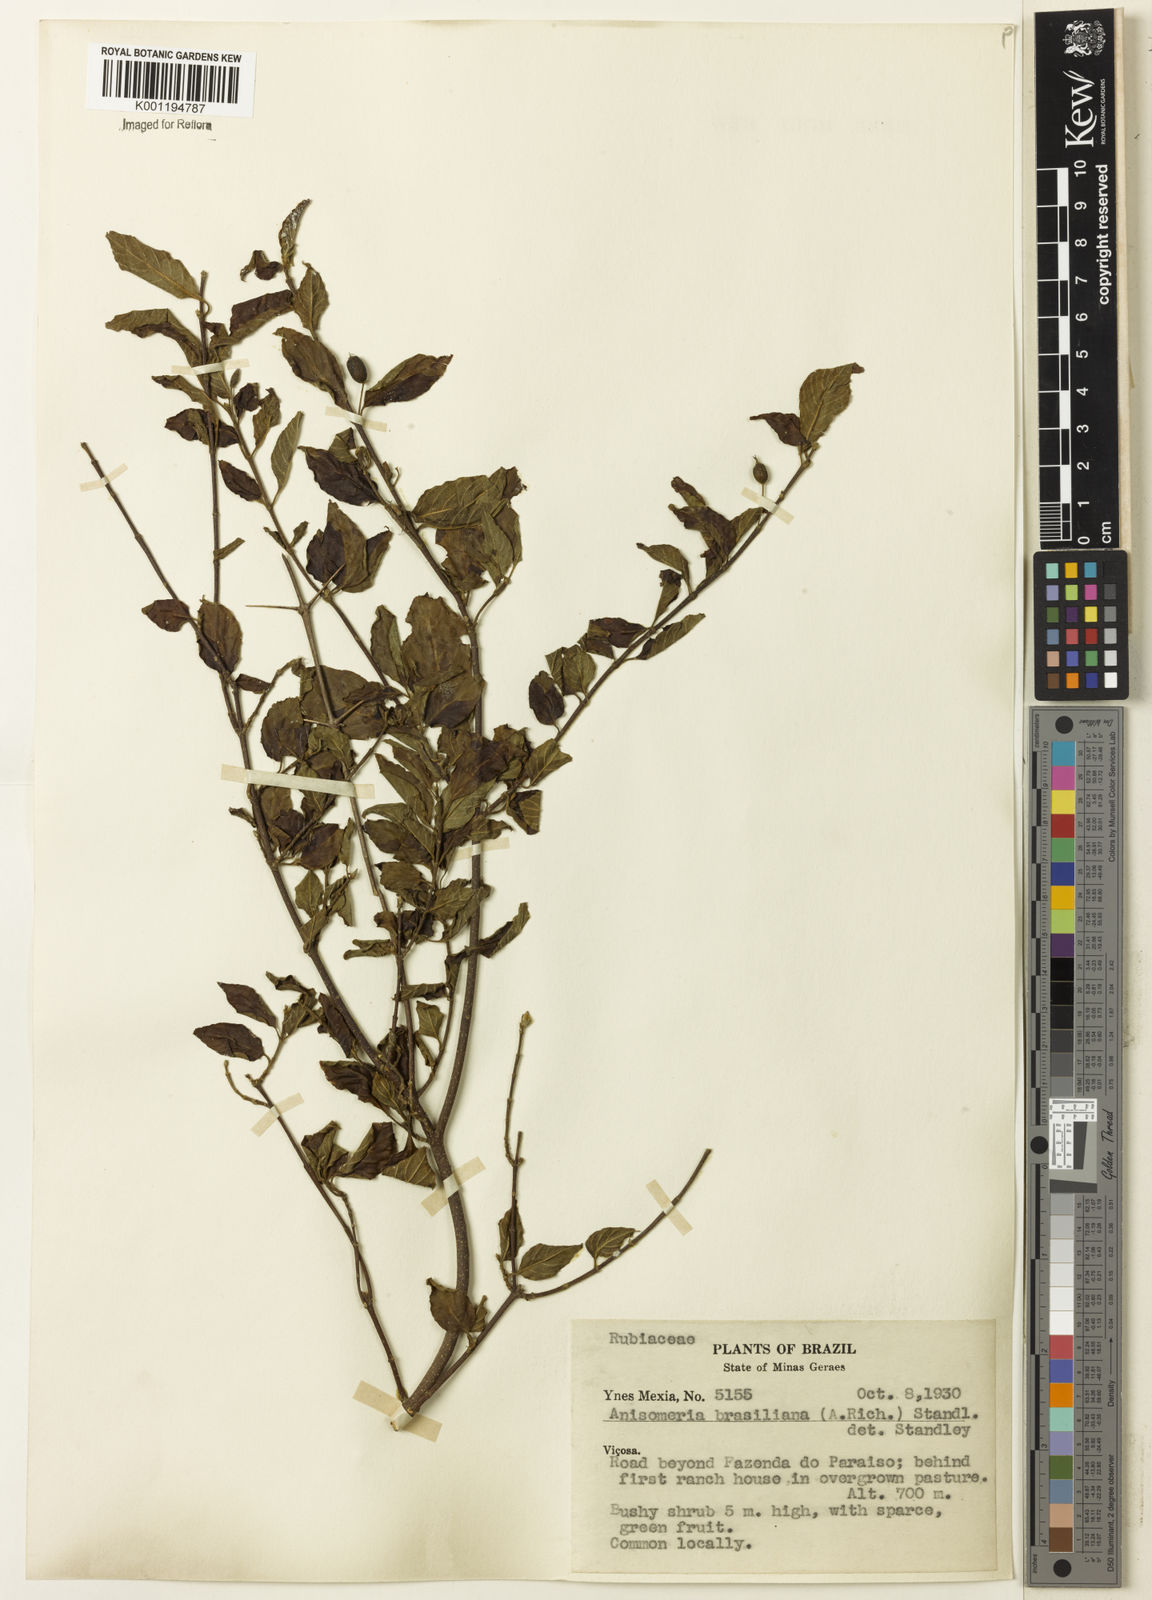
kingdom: Plantae
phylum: Tracheophyta
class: Magnoliopsida
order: Gentianales
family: Rubiaceae
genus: Chomelia
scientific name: Chomelia brasiliana
